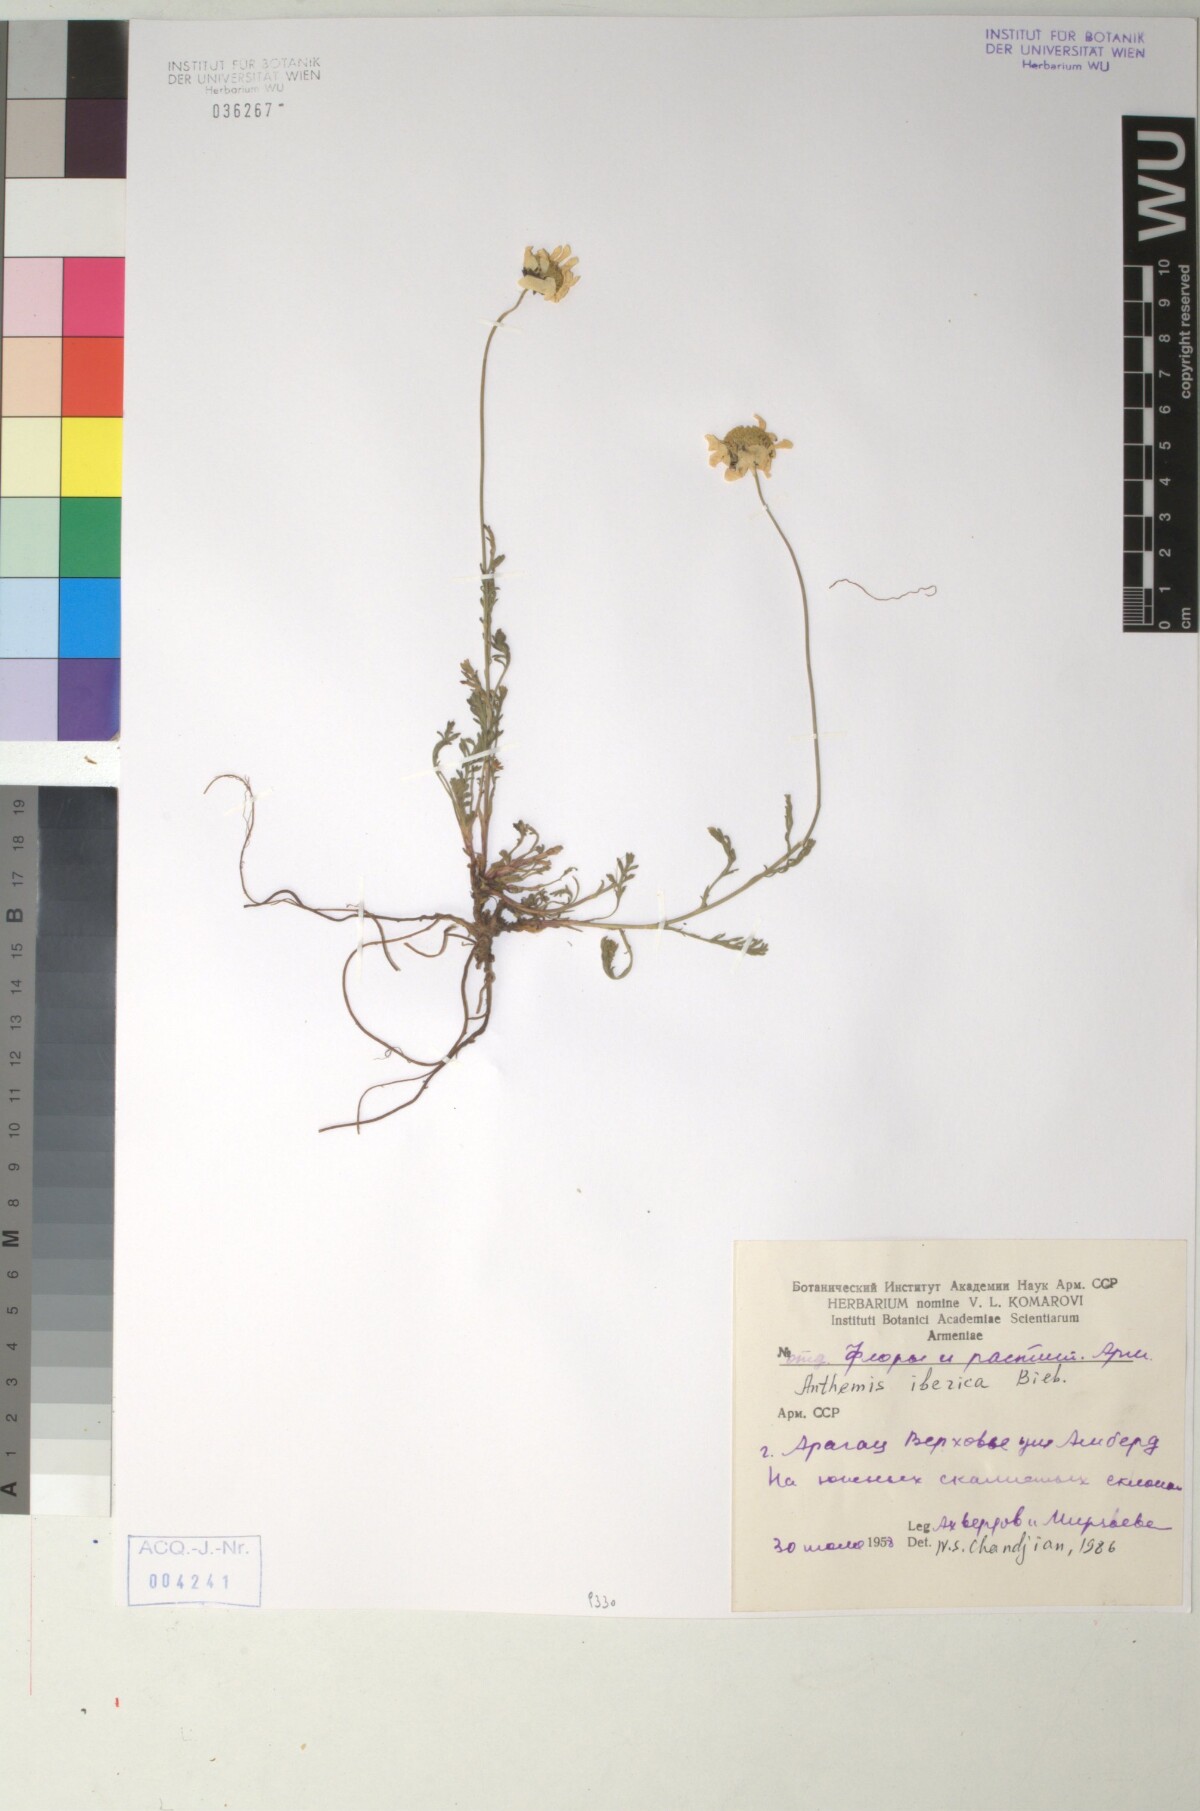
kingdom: Plantae
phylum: Tracheophyta
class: Magnoliopsida
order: Asterales
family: Asteraceae
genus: Anthemis
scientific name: Anthemis cretica
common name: Mountain dog-daisy
